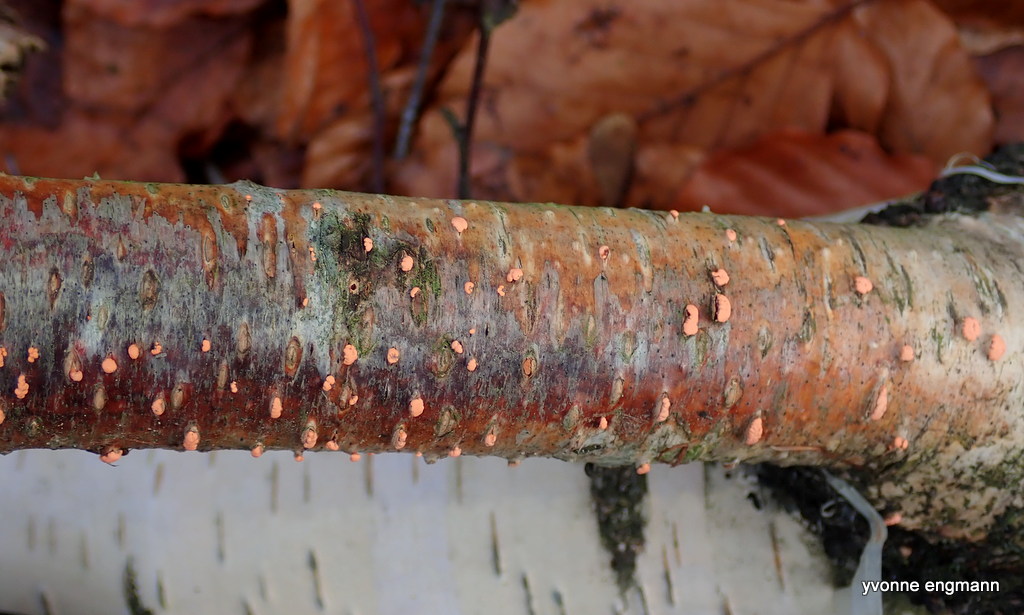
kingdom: Fungi
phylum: Ascomycota
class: Sordariomycetes
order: Hypocreales
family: Nectriaceae
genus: Nectria
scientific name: Nectria cinnabarina
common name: almindelig cinnobersvamp
